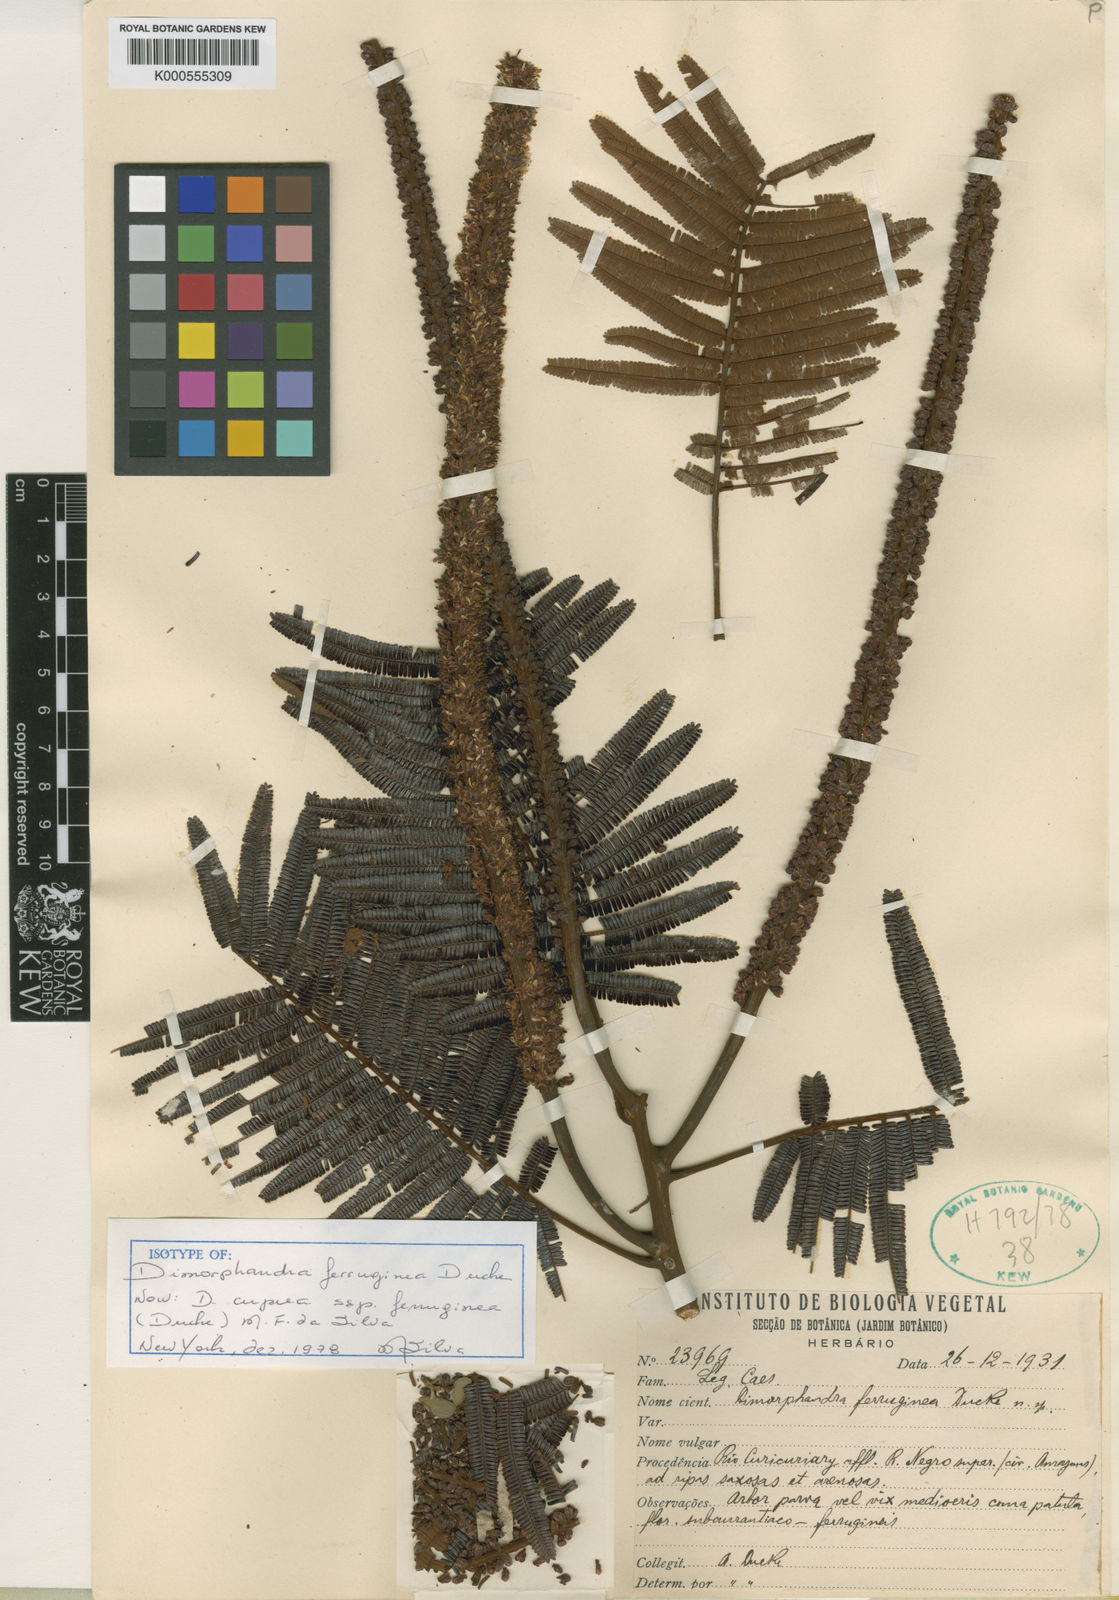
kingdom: Plantae
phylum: Tracheophyta
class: Magnoliopsida
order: Fabales
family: Fabaceae
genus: Dimorphandra
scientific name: Dimorphandra cuprea
